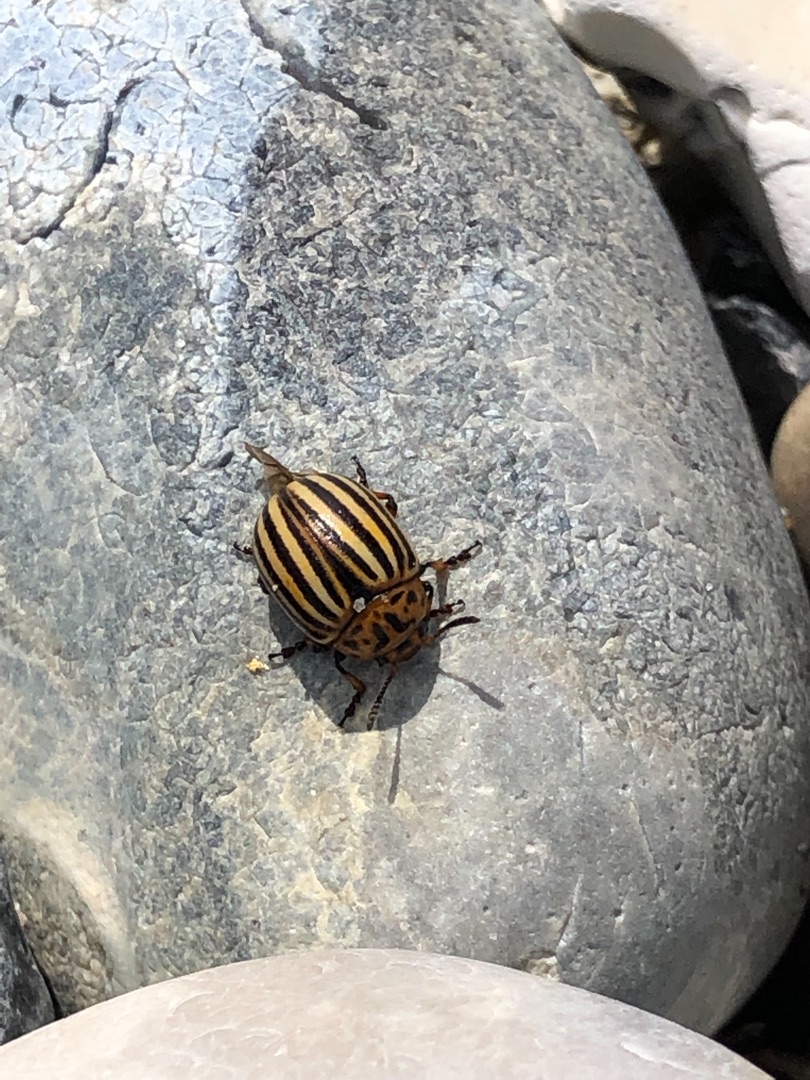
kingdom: Animalia
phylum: Arthropoda
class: Insecta
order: Coleoptera
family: Chrysomelidae
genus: Leptinotarsa
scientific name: Leptinotarsa decemlineata
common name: Coloradobille
